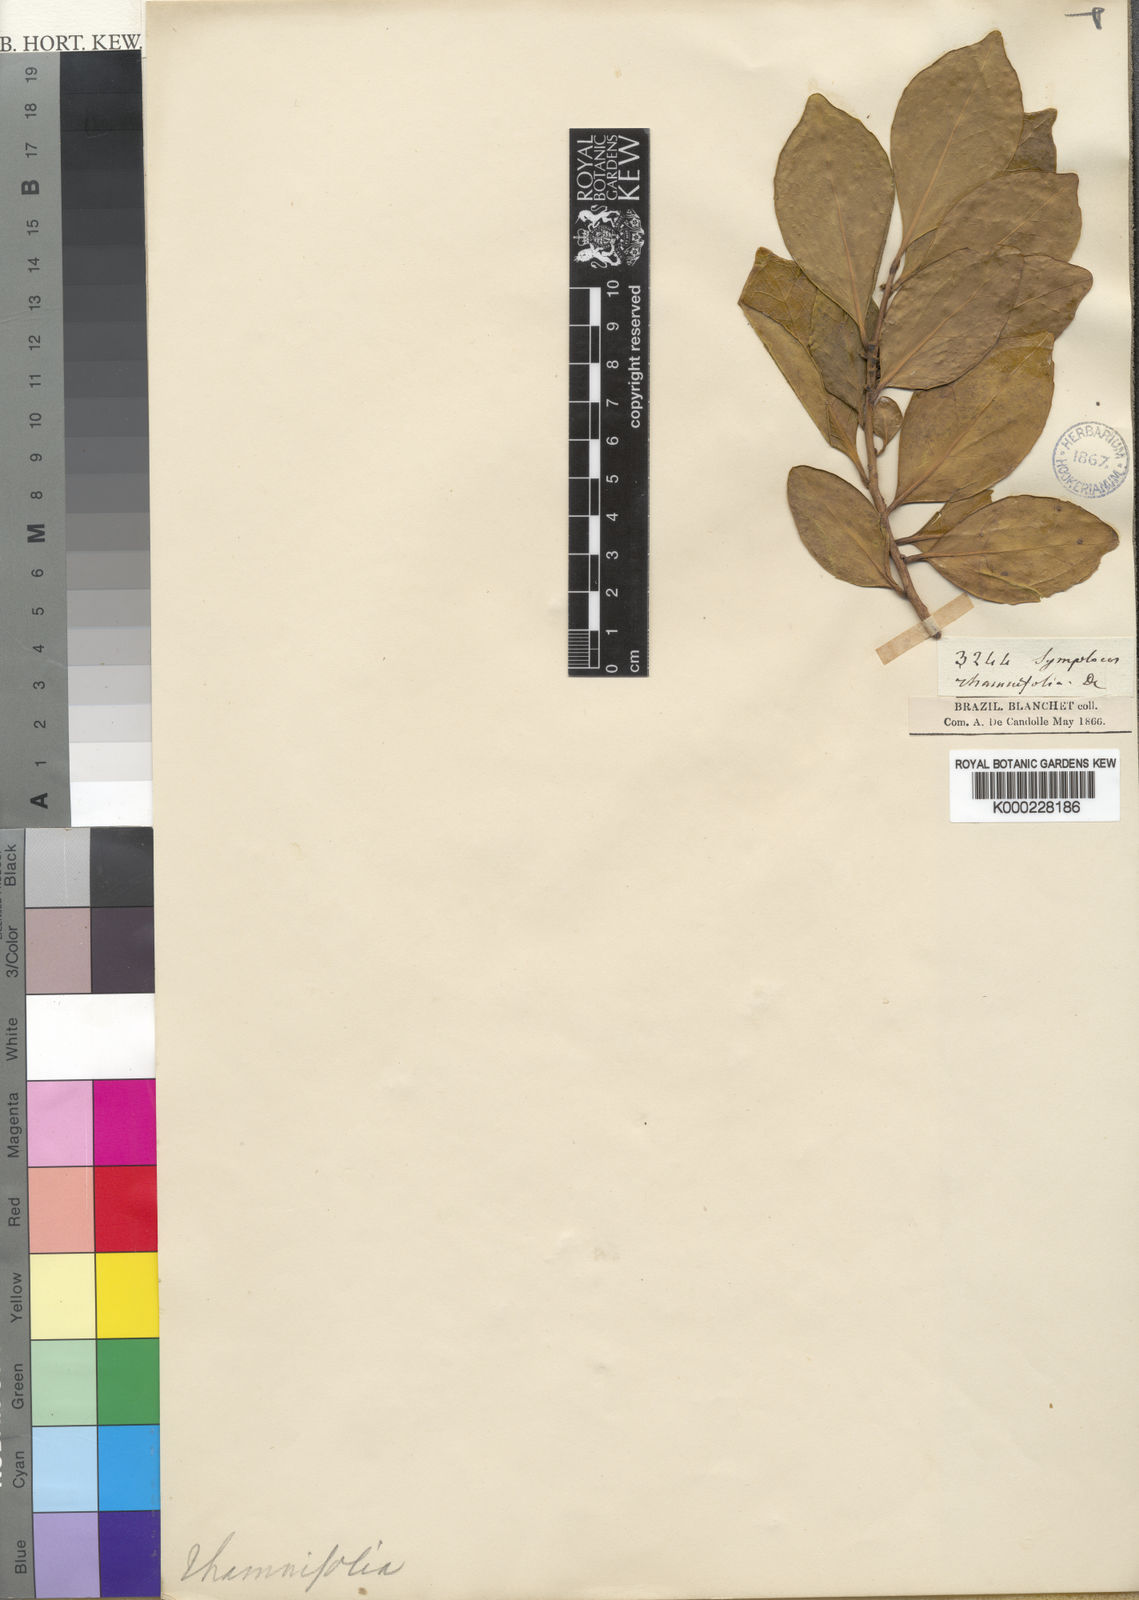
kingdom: Plantae
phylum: Tracheophyta
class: Magnoliopsida
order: Ericales
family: Symplocaceae
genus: Symplocos
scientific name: Symplocos rhamnifolia
